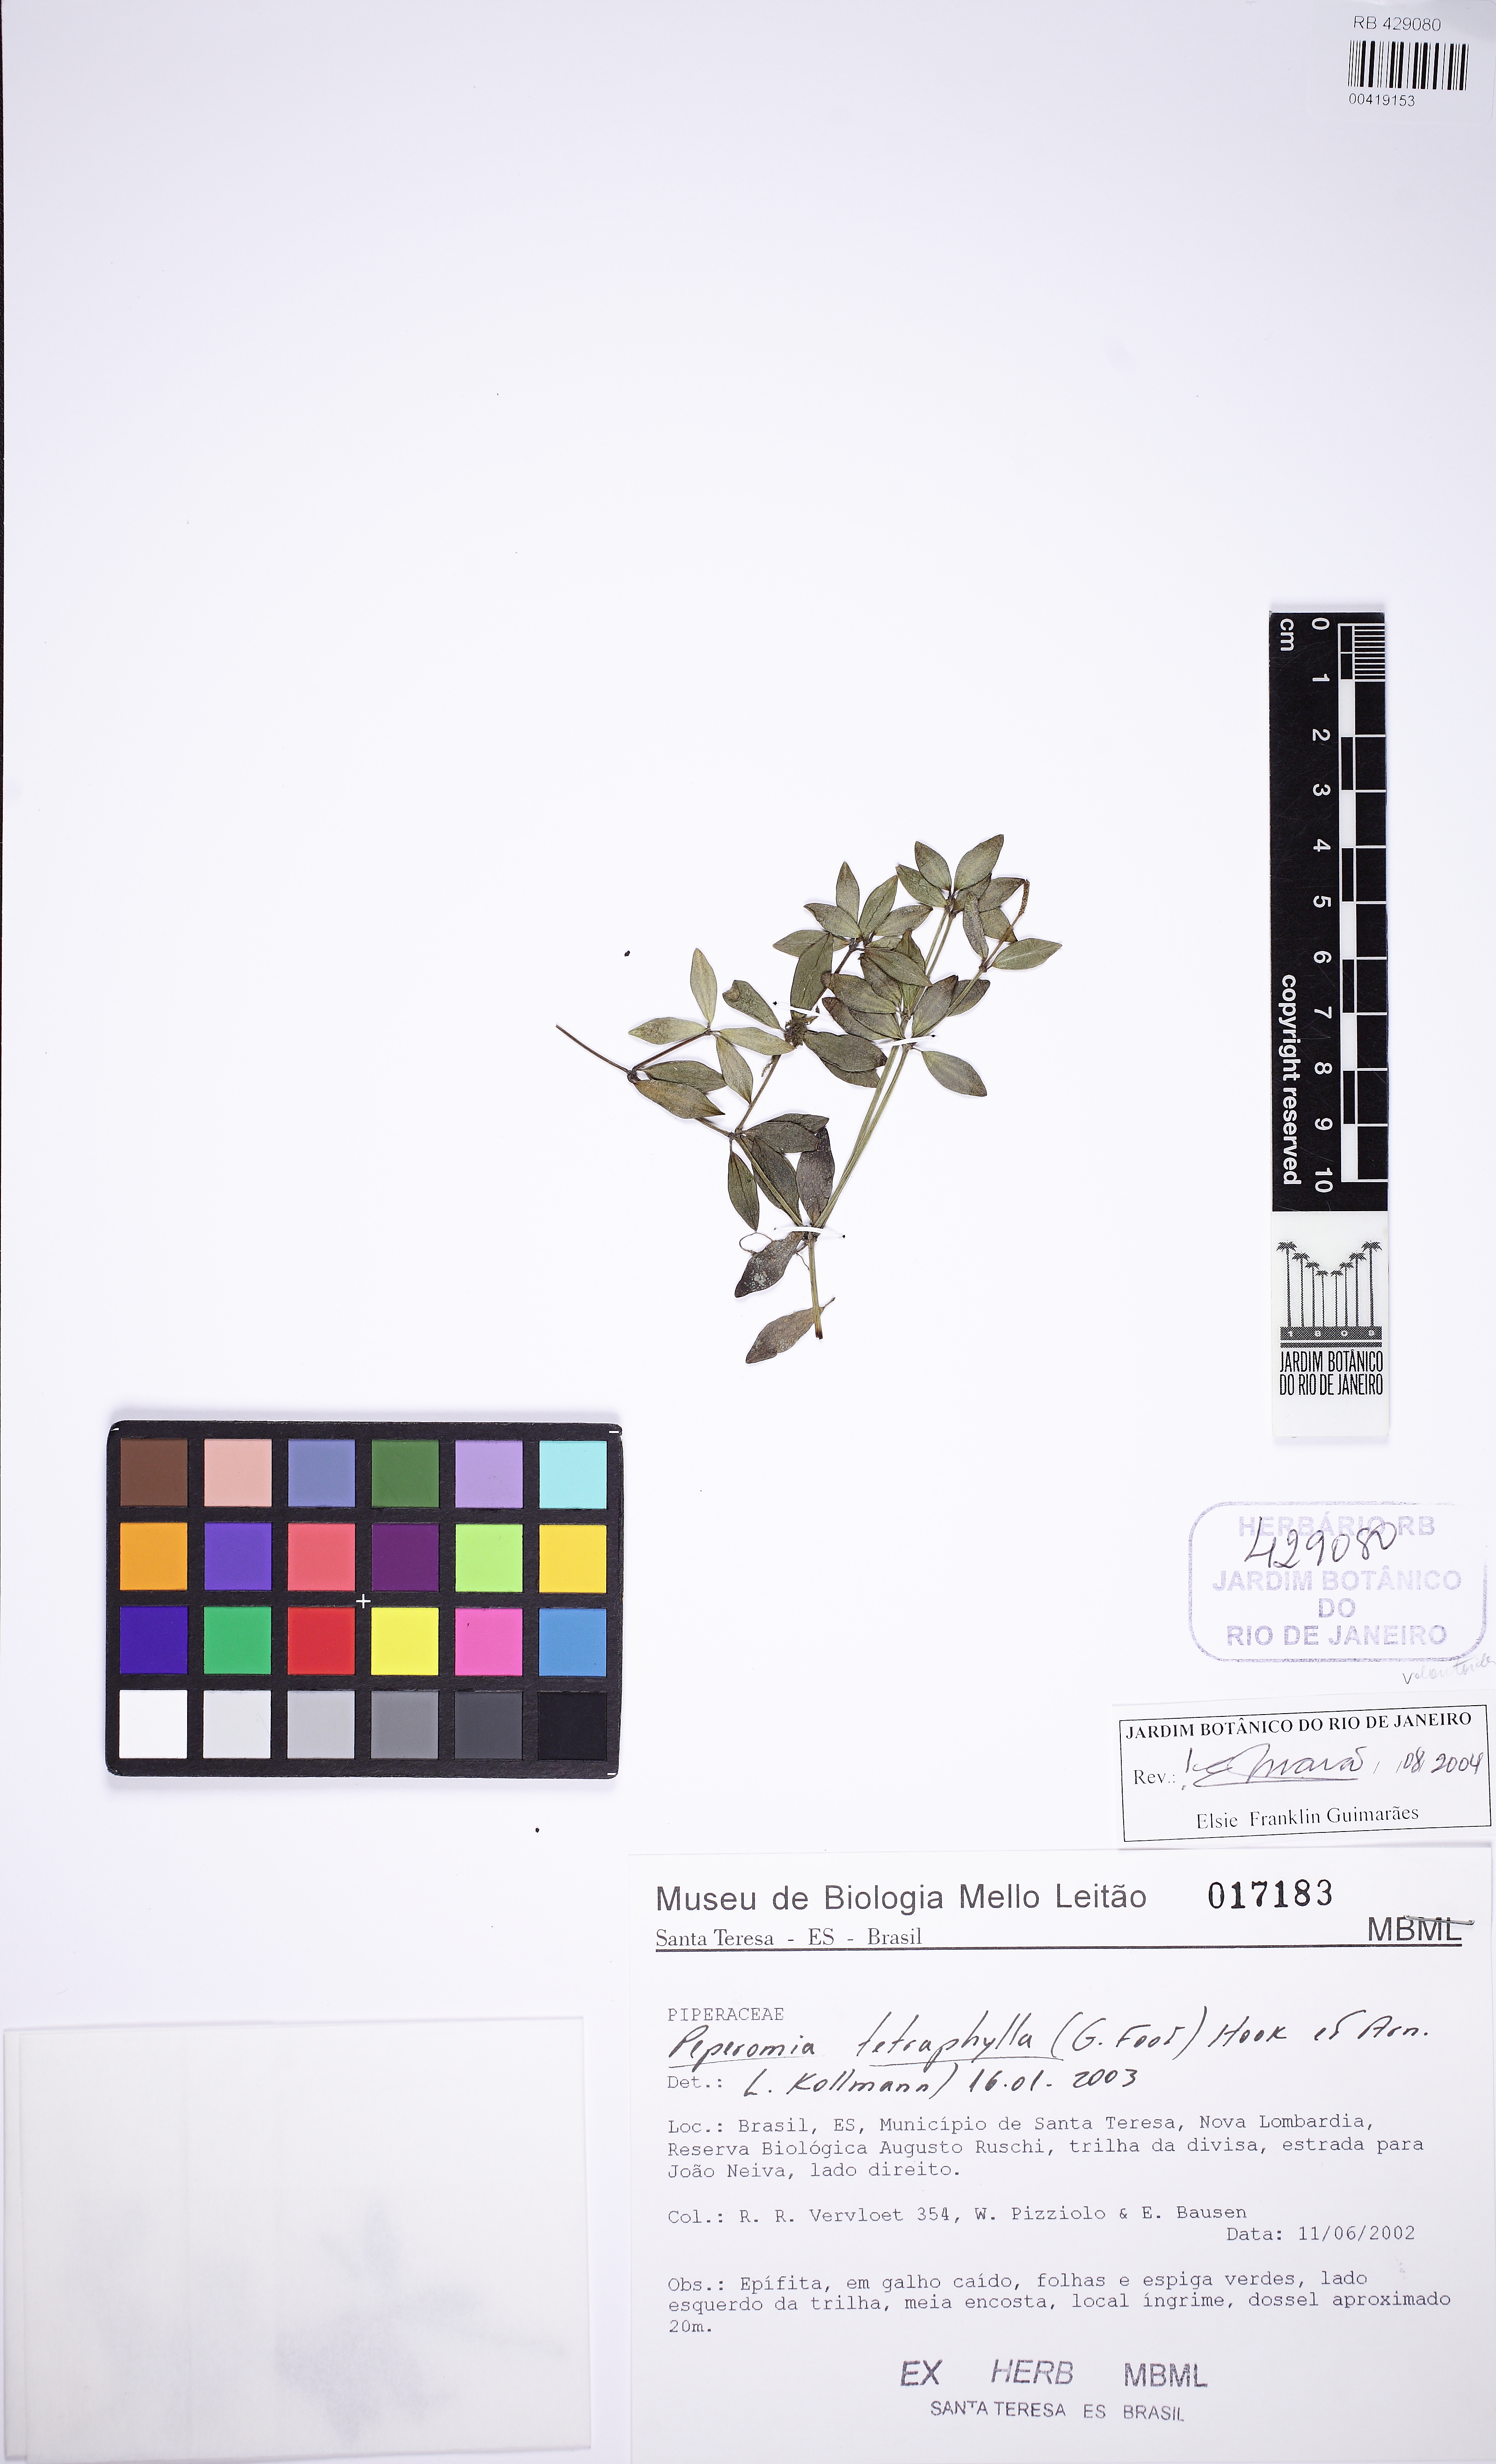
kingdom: Plantae
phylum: Tracheophyta
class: Magnoliopsida
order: Piperales
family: Piperaceae
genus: Peperomia
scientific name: Peperomia tetraphylla
